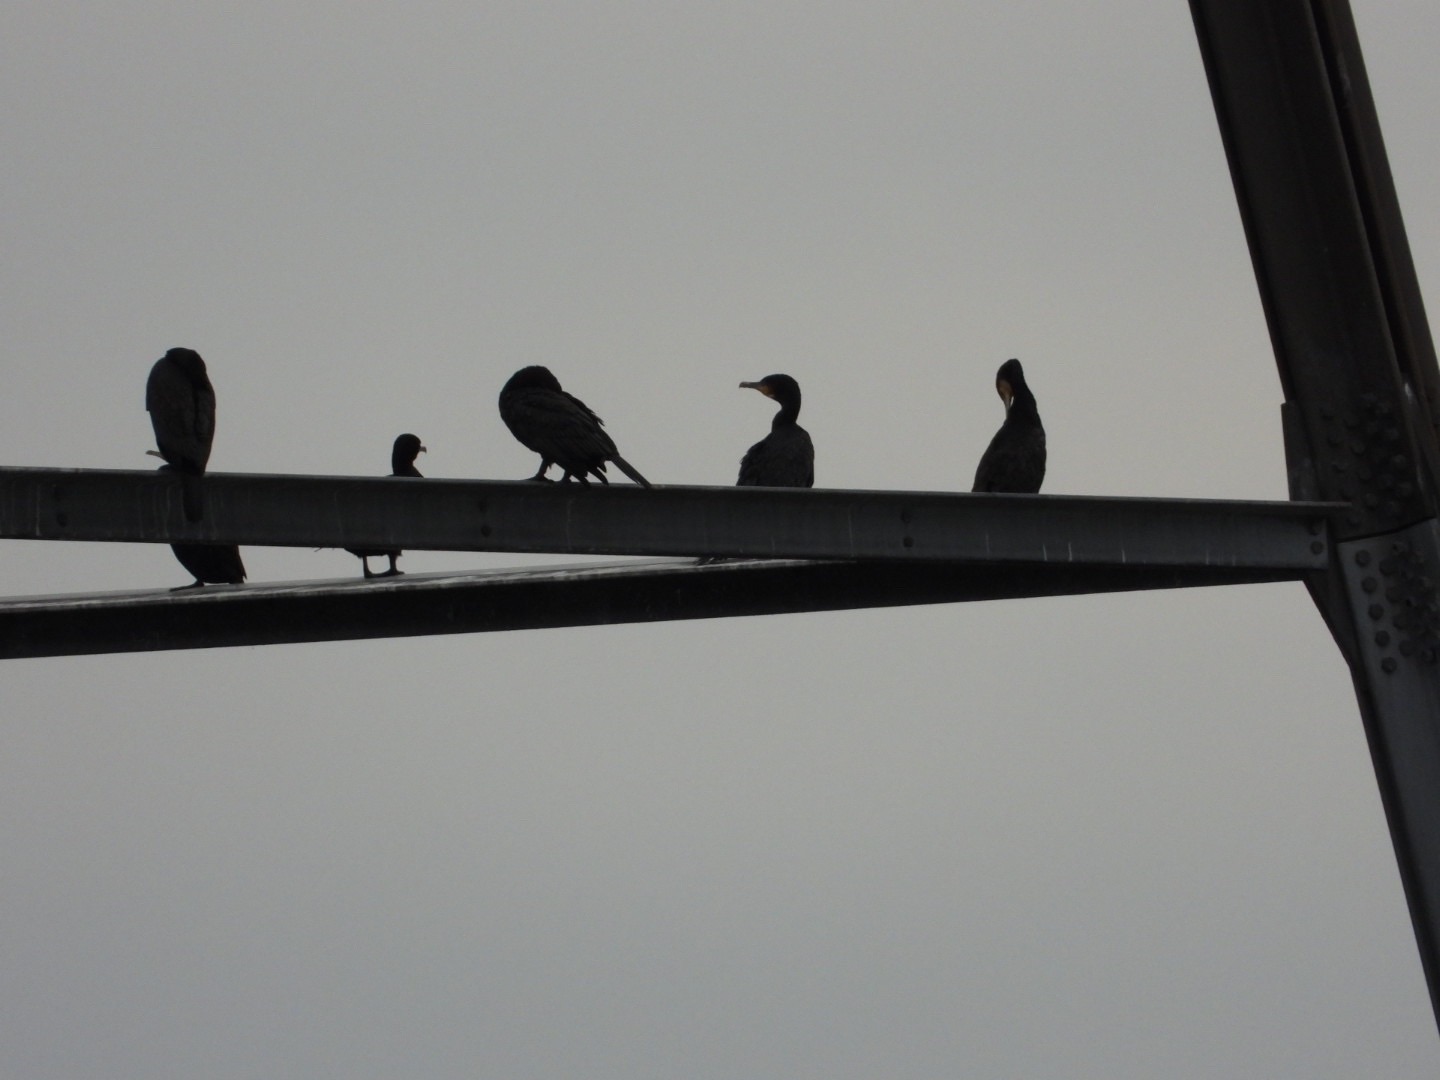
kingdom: Animalia
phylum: Chordata
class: Aves
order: Suliformes
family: Phalacrocoracidae
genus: Phalacrocorax
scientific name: Phalacrocorax carbo
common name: Skarv
